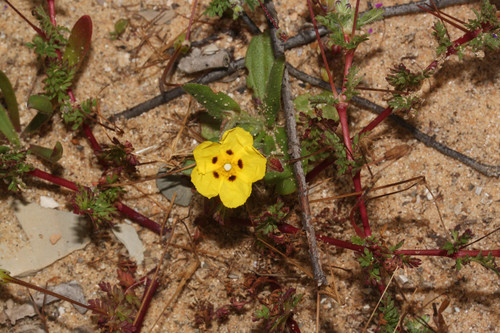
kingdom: Plantae
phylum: Tracheophyta
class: Magnoliopsida
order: Malvales
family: Cistaceae
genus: Tuberaria
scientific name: Tuberaria guttata
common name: Spotted rock-rose
